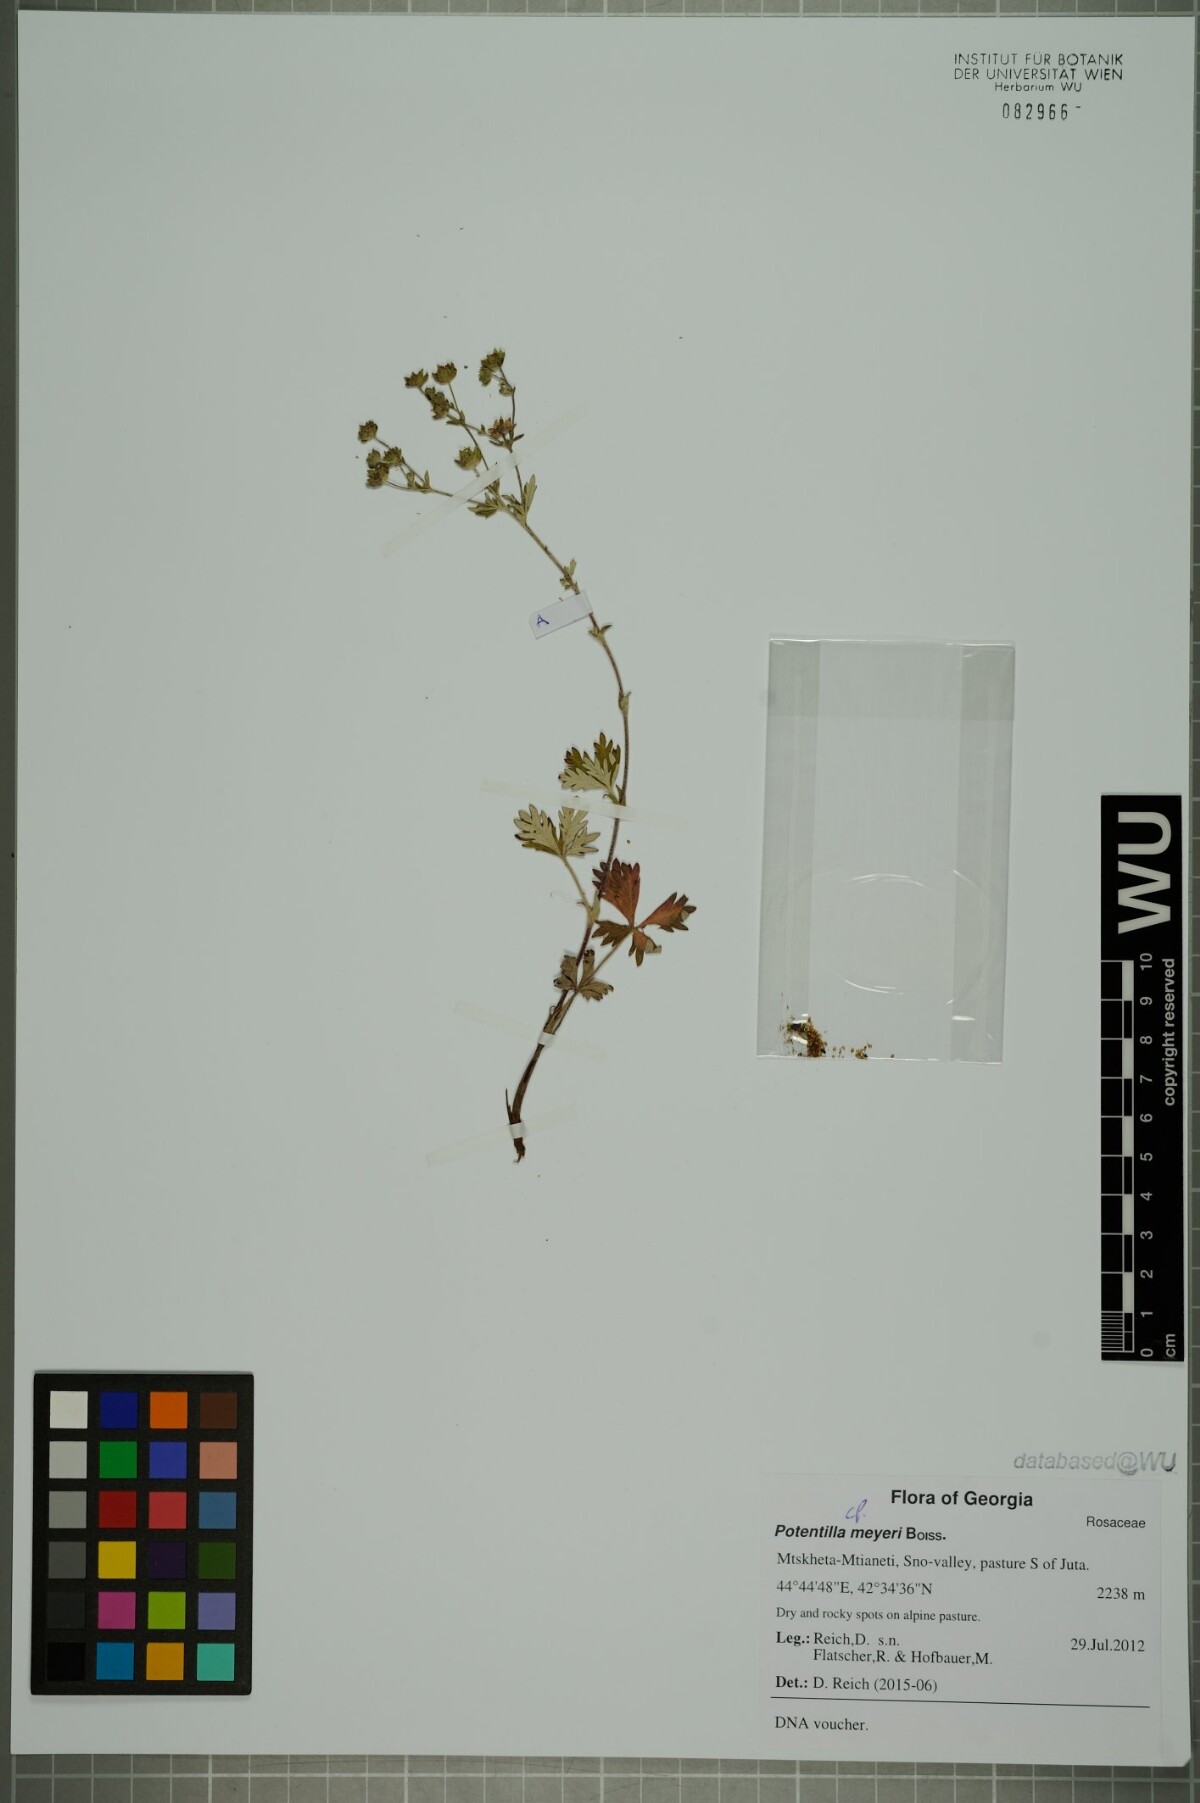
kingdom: Plantae
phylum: Tracheophyta
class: Magnoliopsida
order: Rosales
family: Rosaceae
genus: Potentilla
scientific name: Potentilla meyeri
